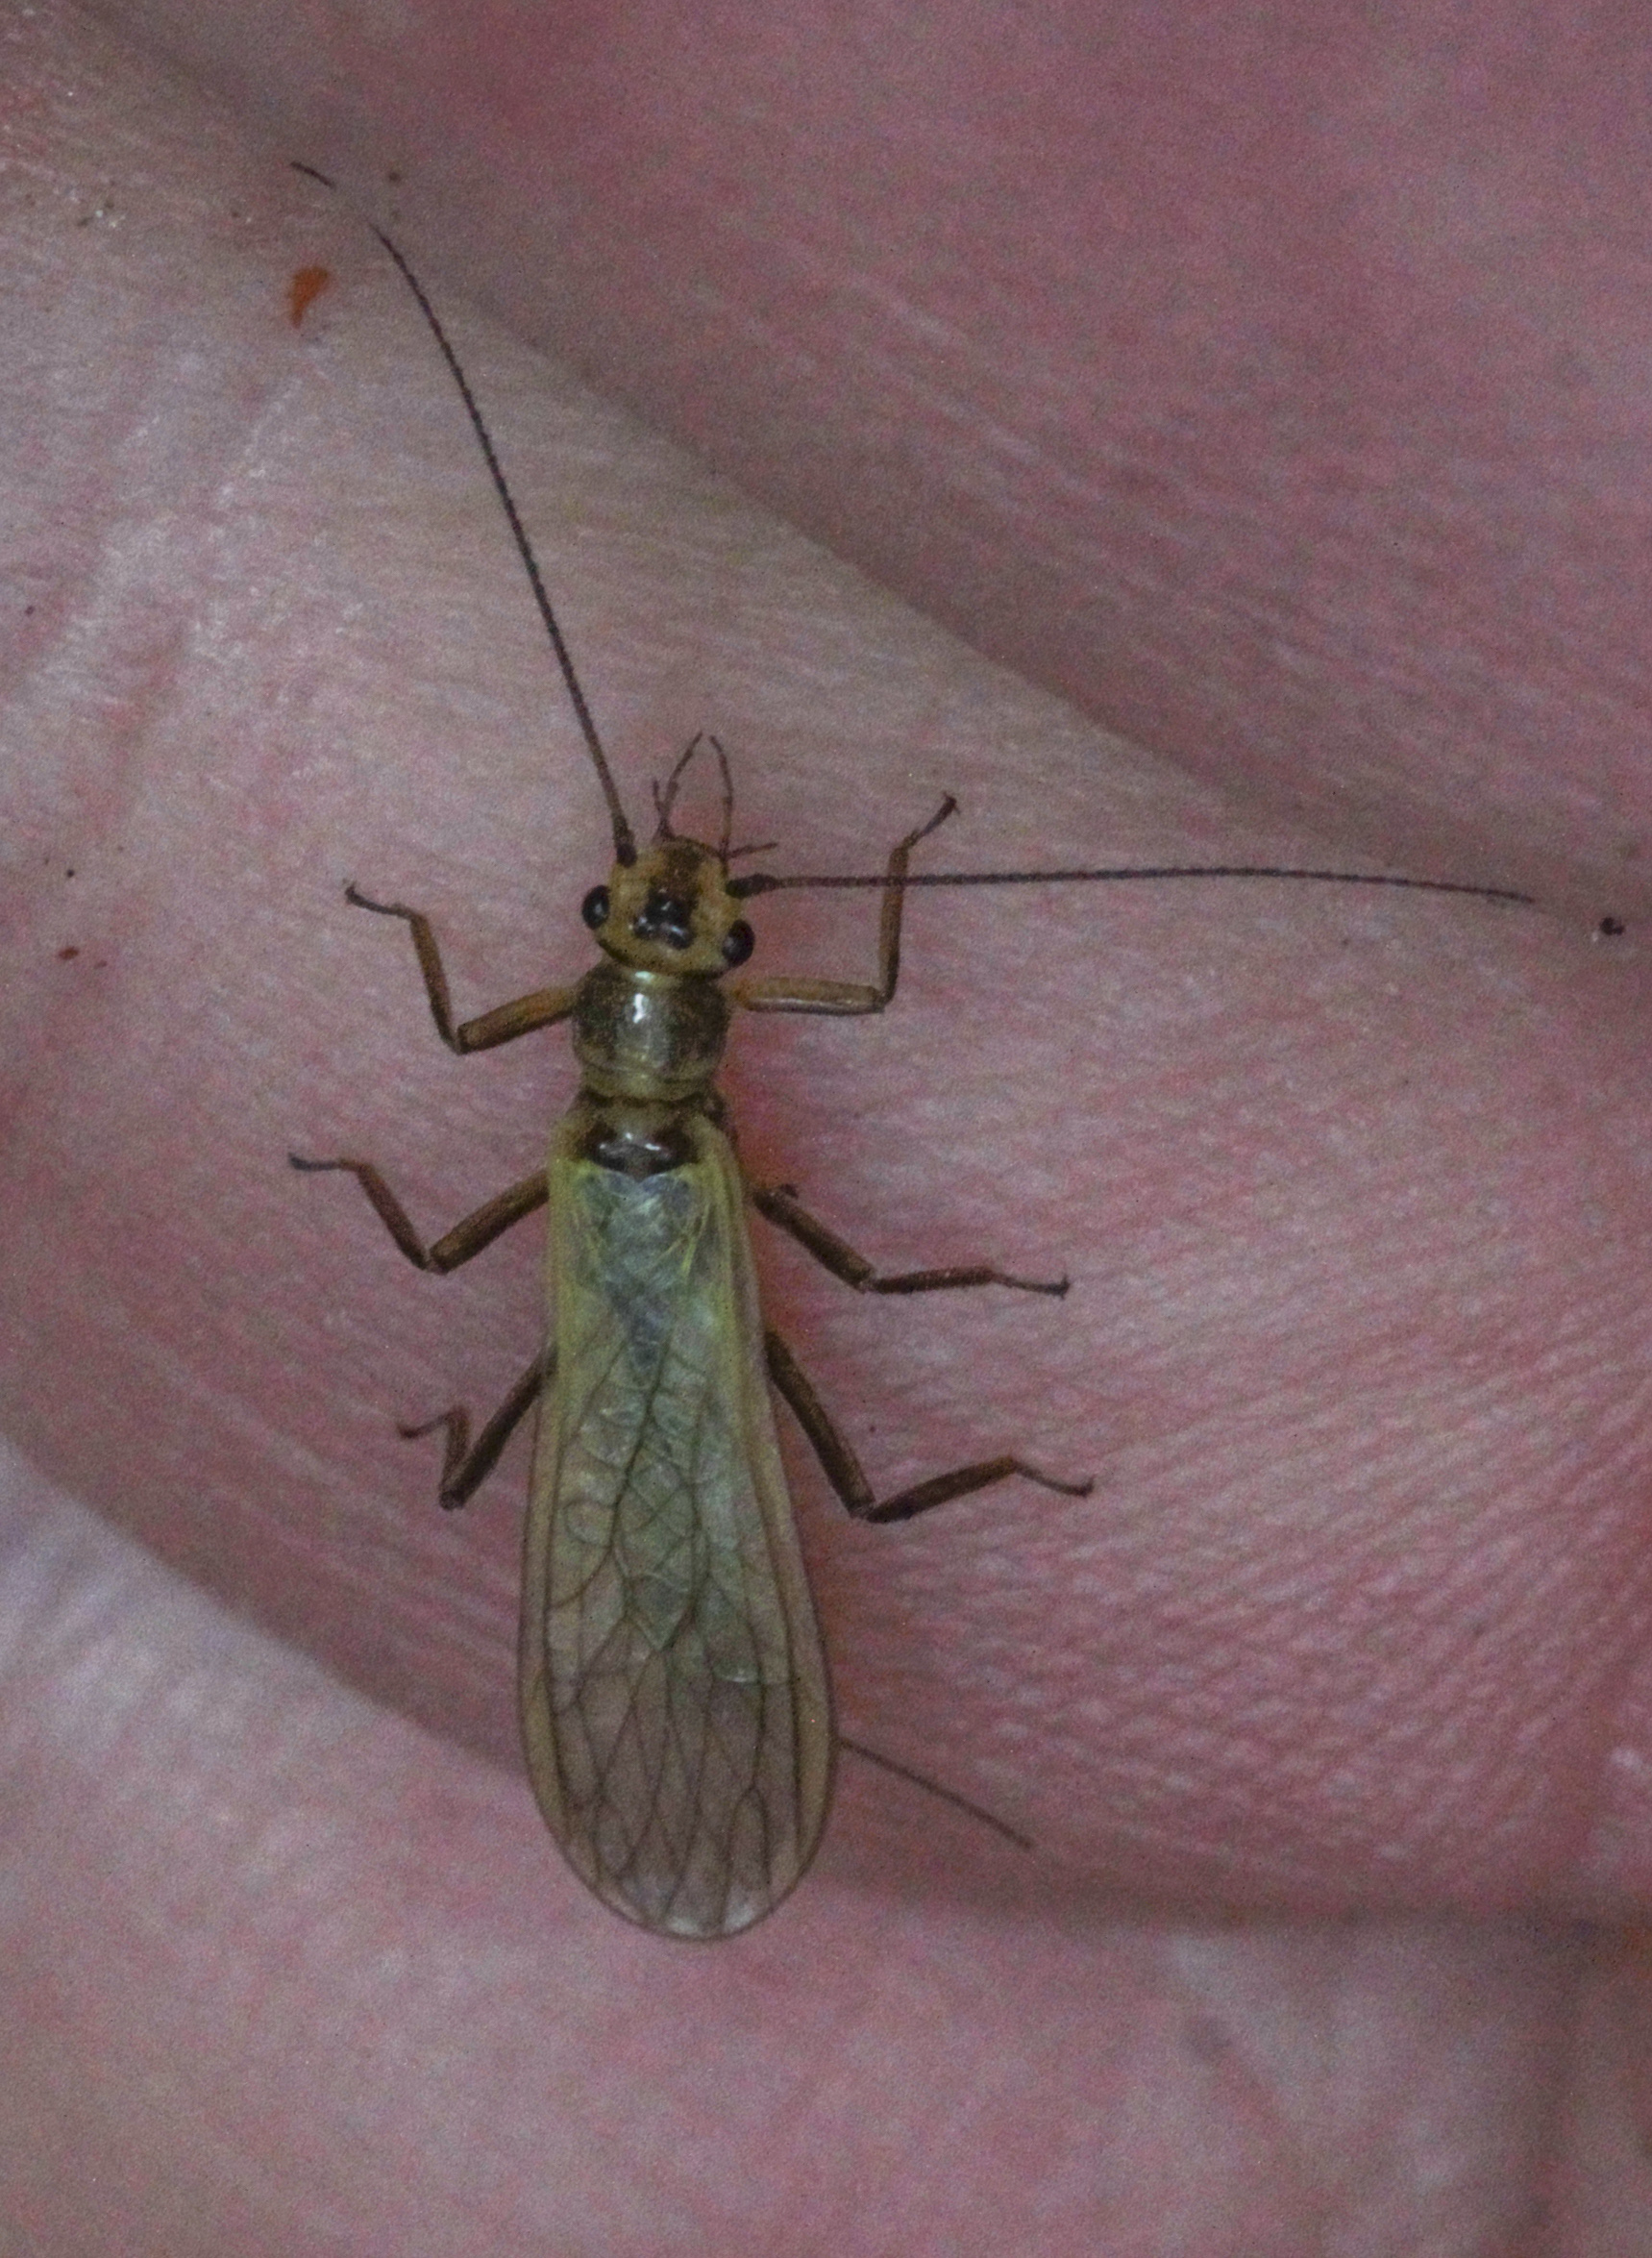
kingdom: Animalia
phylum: Arthropoda
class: Insecta
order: Plecoptera
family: Perlodidae
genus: Isoperla
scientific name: Isoperla
